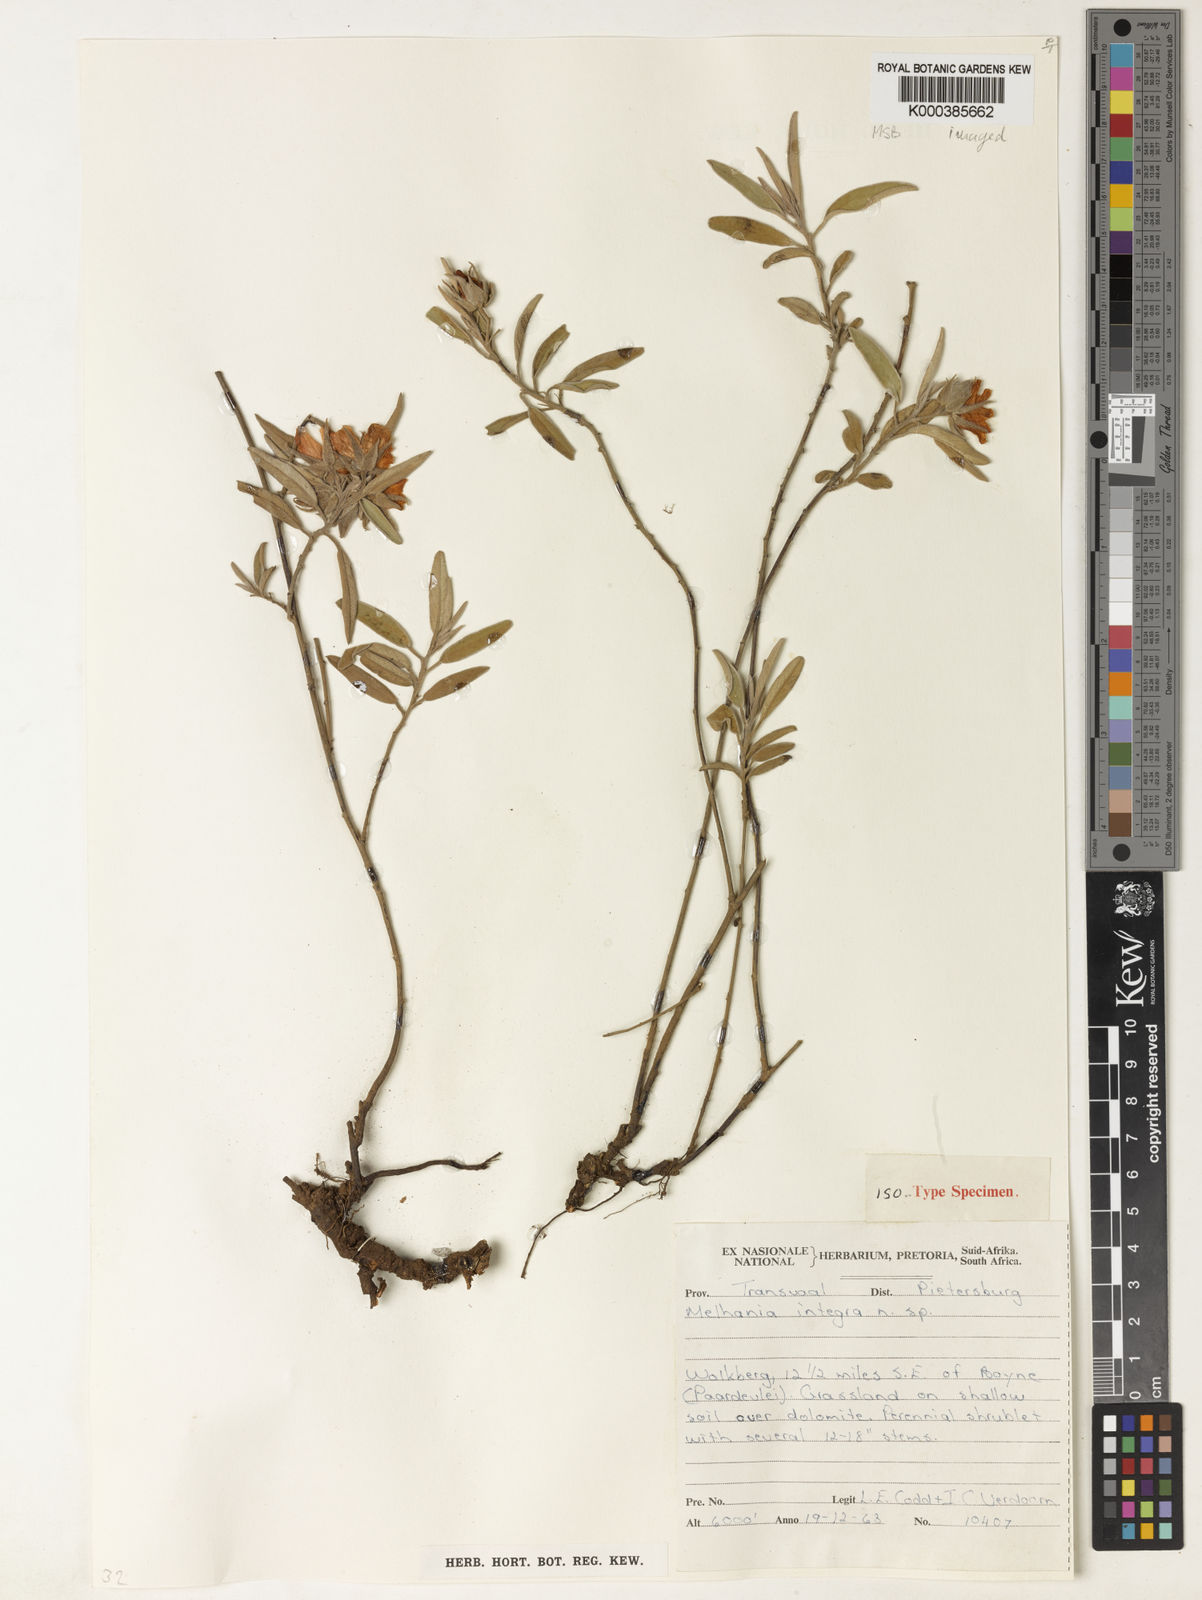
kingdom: Plantae
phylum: Tracheophyta
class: Magnoliopsida
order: Malvales
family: Malvaceae
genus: Melhania
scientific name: Melhania integra
